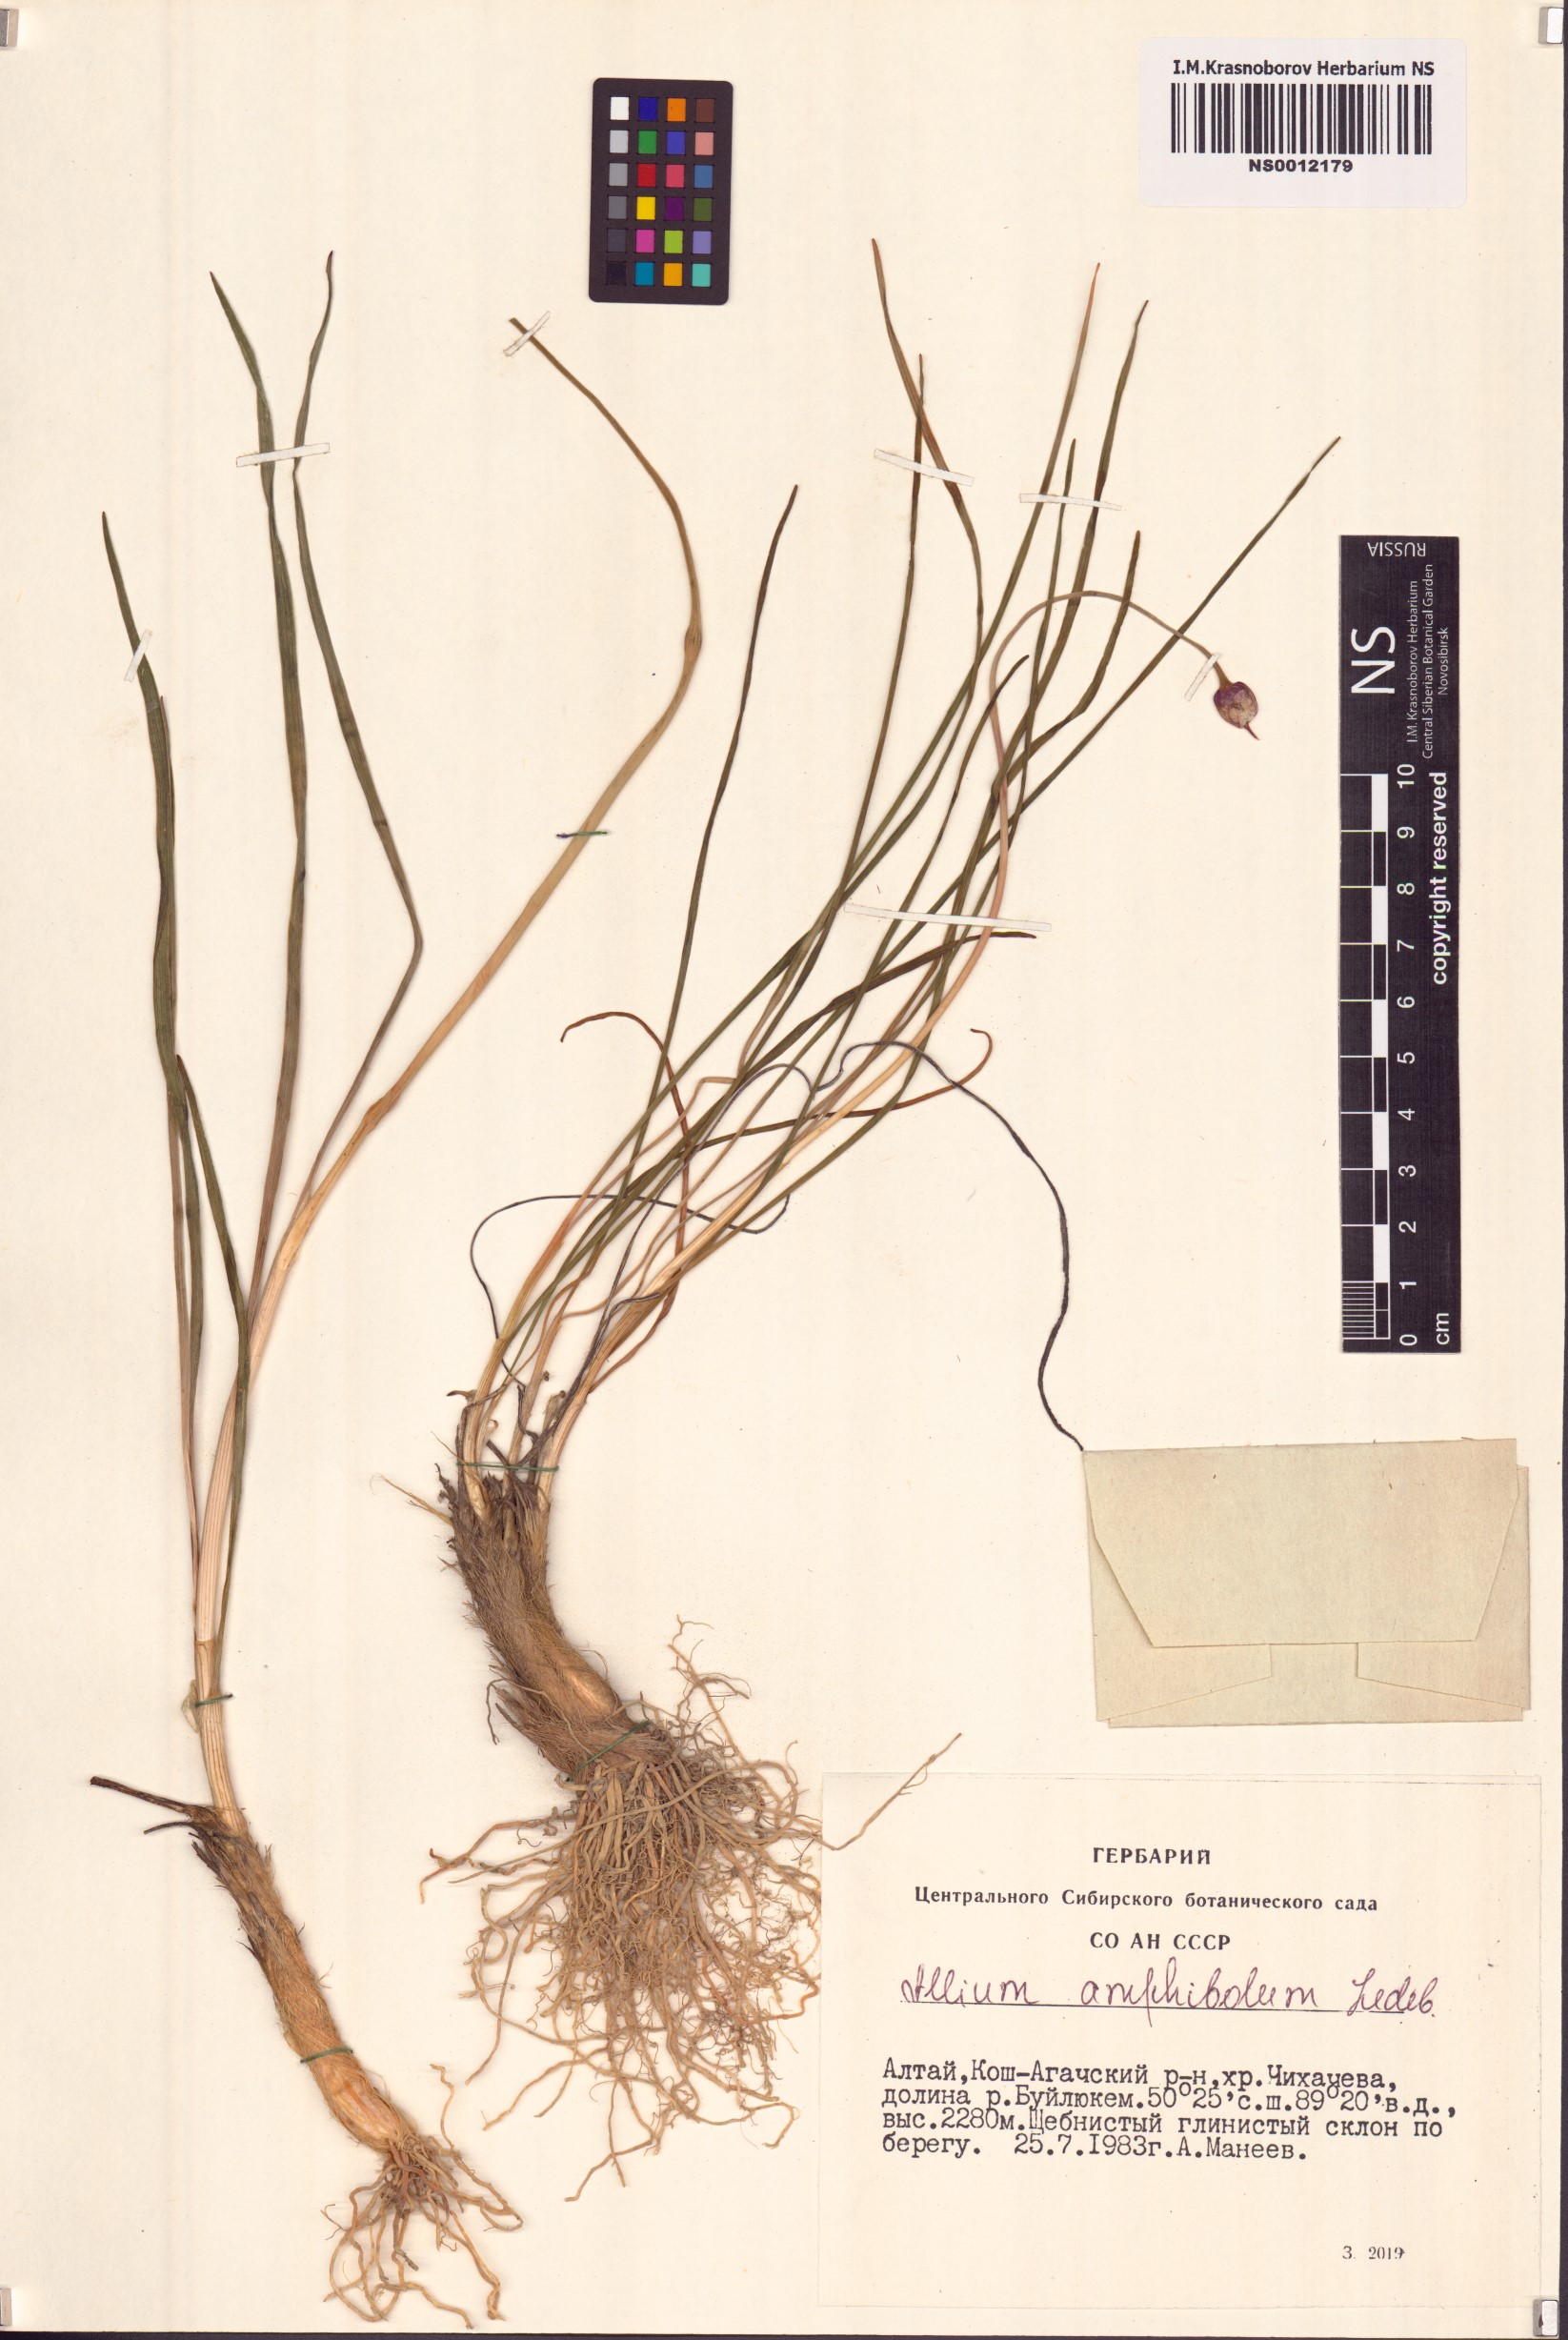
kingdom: Plantae
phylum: Tracheophyta
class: Liliopsida
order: Asparagales
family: Amaryllidaceae
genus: Allium
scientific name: Allium amphibolum
